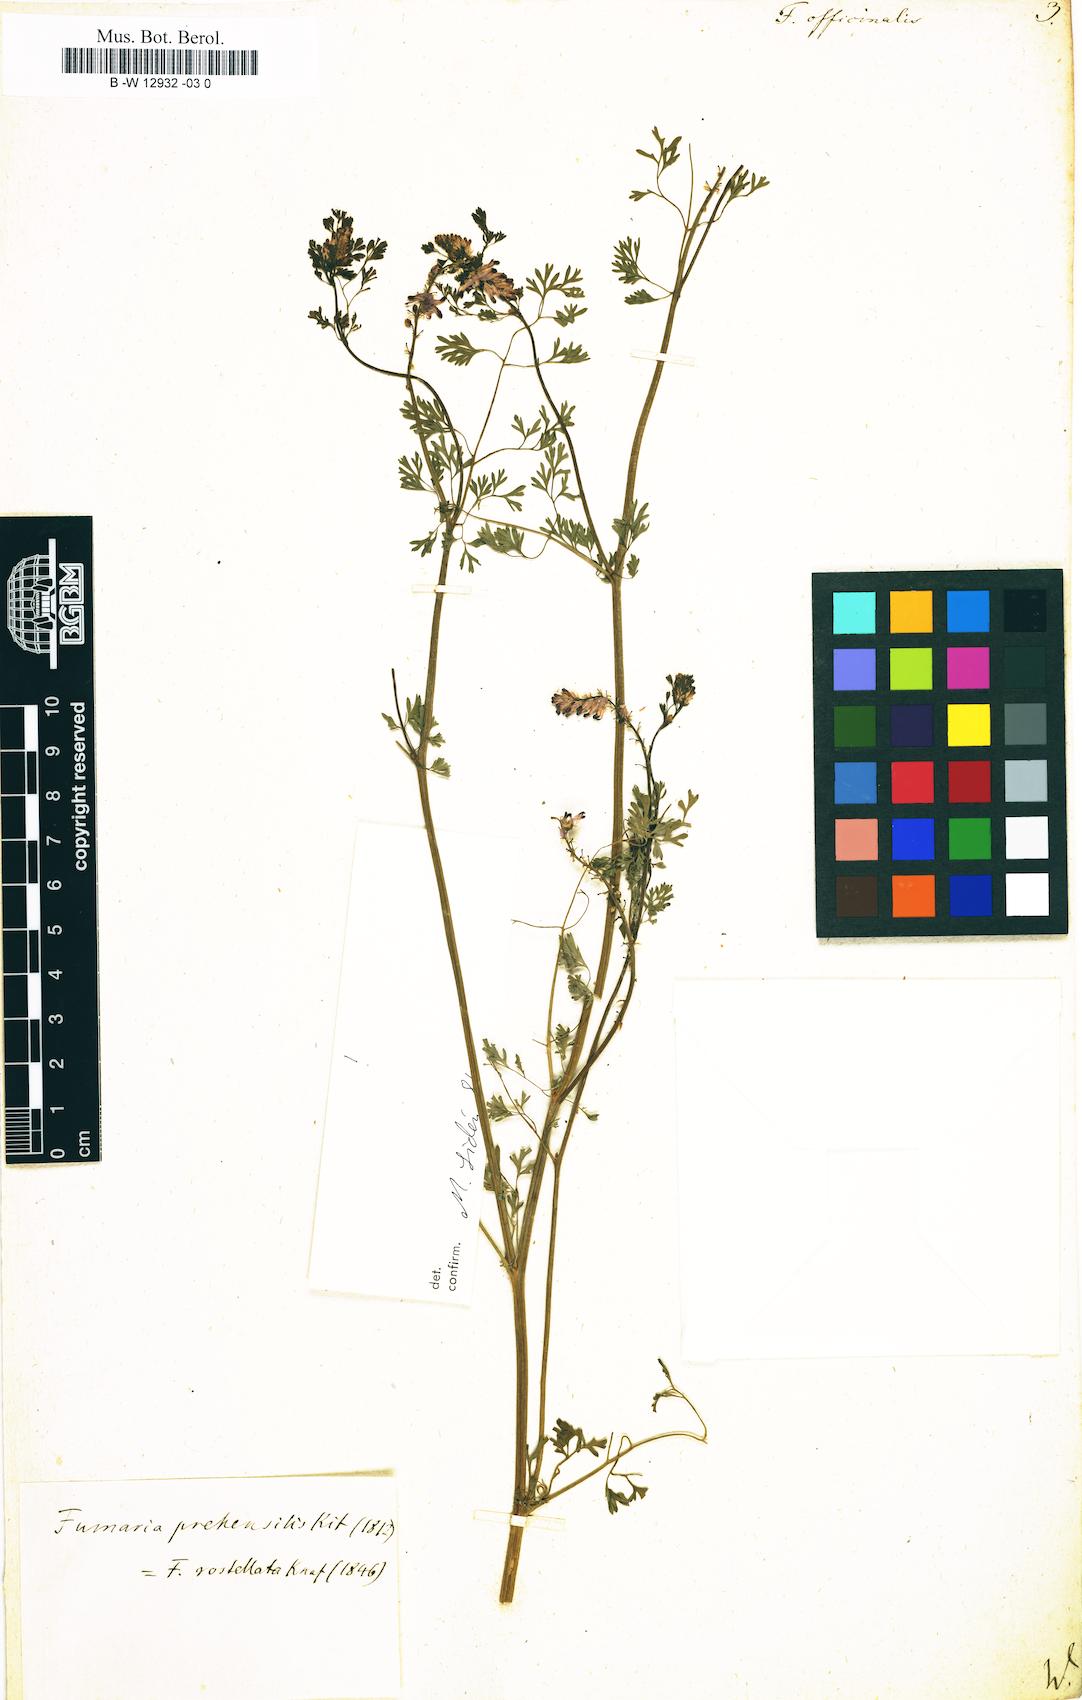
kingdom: Plantae
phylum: Tracheophyta
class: Magnoliopsida
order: Ranunculales
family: Papaveraceae
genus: Fumaria
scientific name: Fumaria officinalis
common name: Common fumitory
